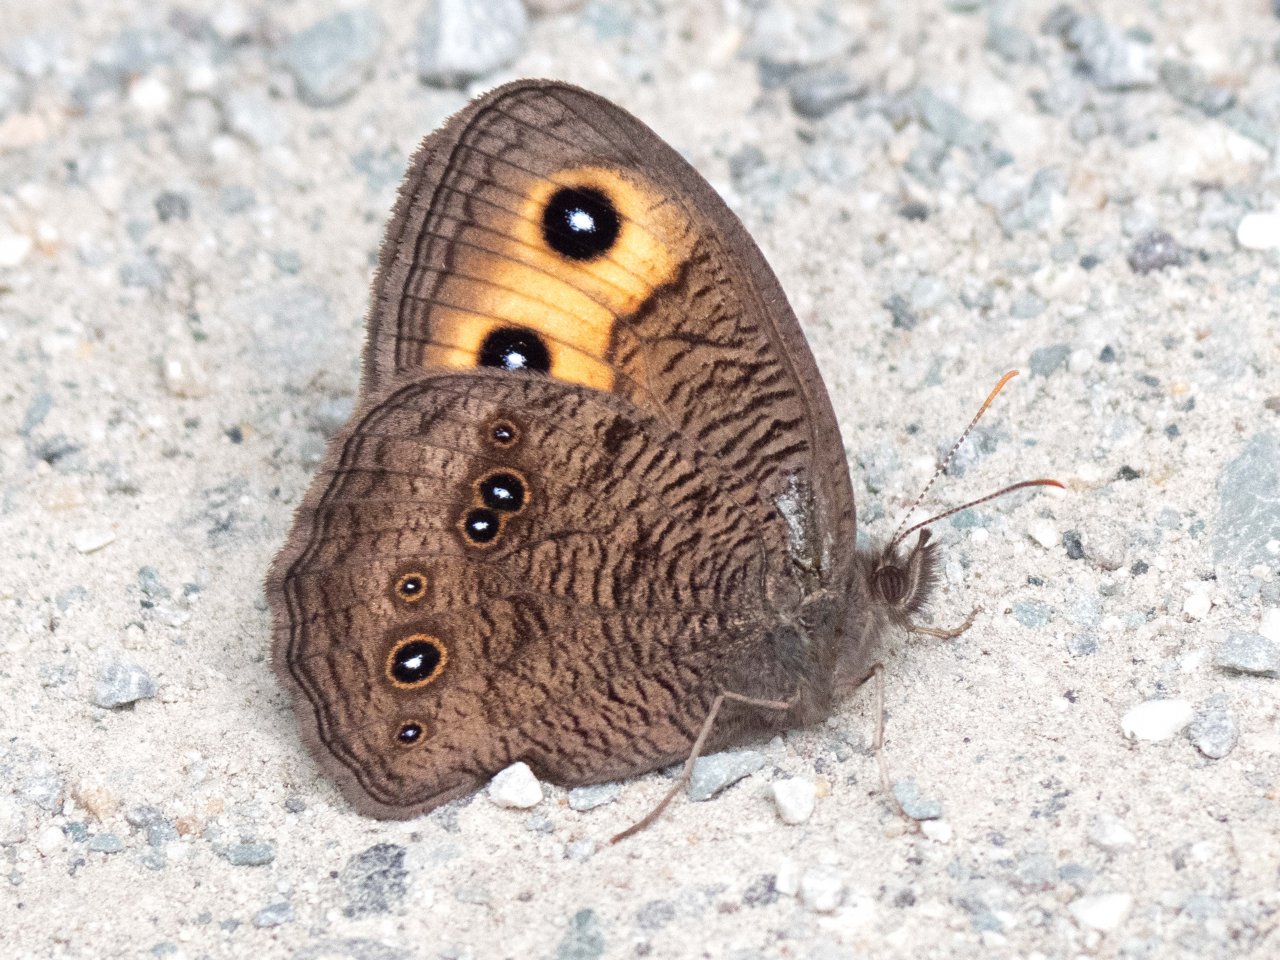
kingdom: Animalia
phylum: Arthropoda
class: Insecta
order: Lepidoptera
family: Nymphalidae
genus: Cercyonis
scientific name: Cercyonis pegala
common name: Common Wood-Nymph
